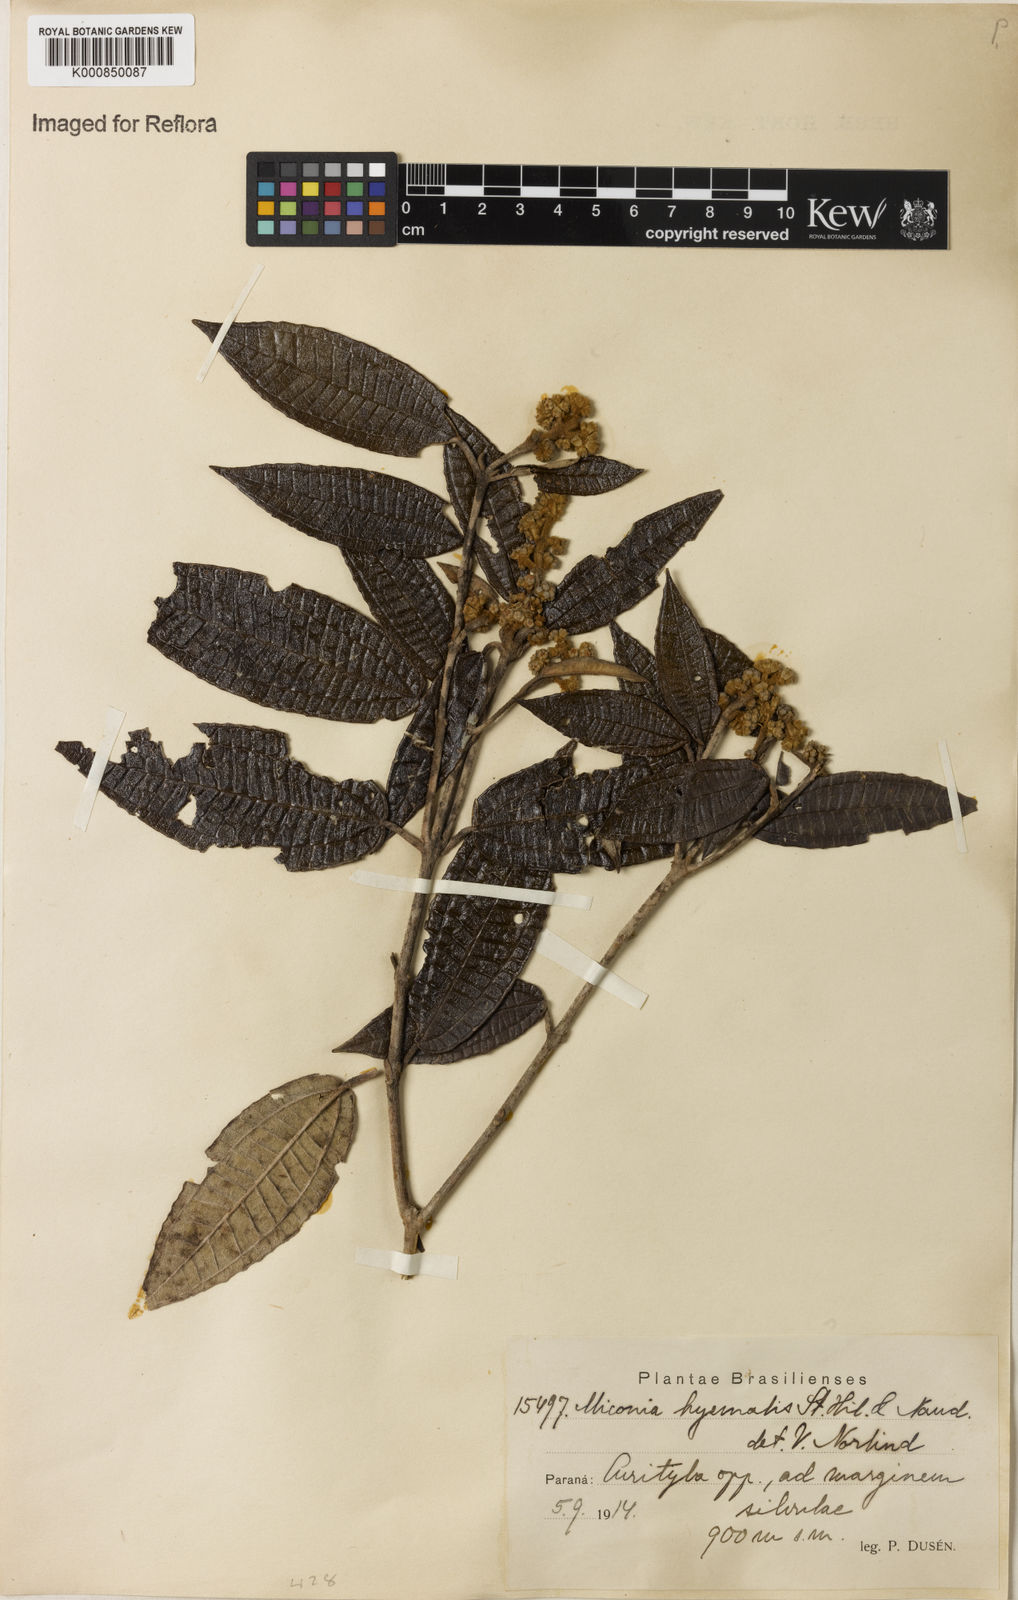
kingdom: Plantae
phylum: Tracheophyta
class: Magnoliopsida
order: Myrtales
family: Melastomataceae
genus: Miconia
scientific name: Miconia hyemalis
